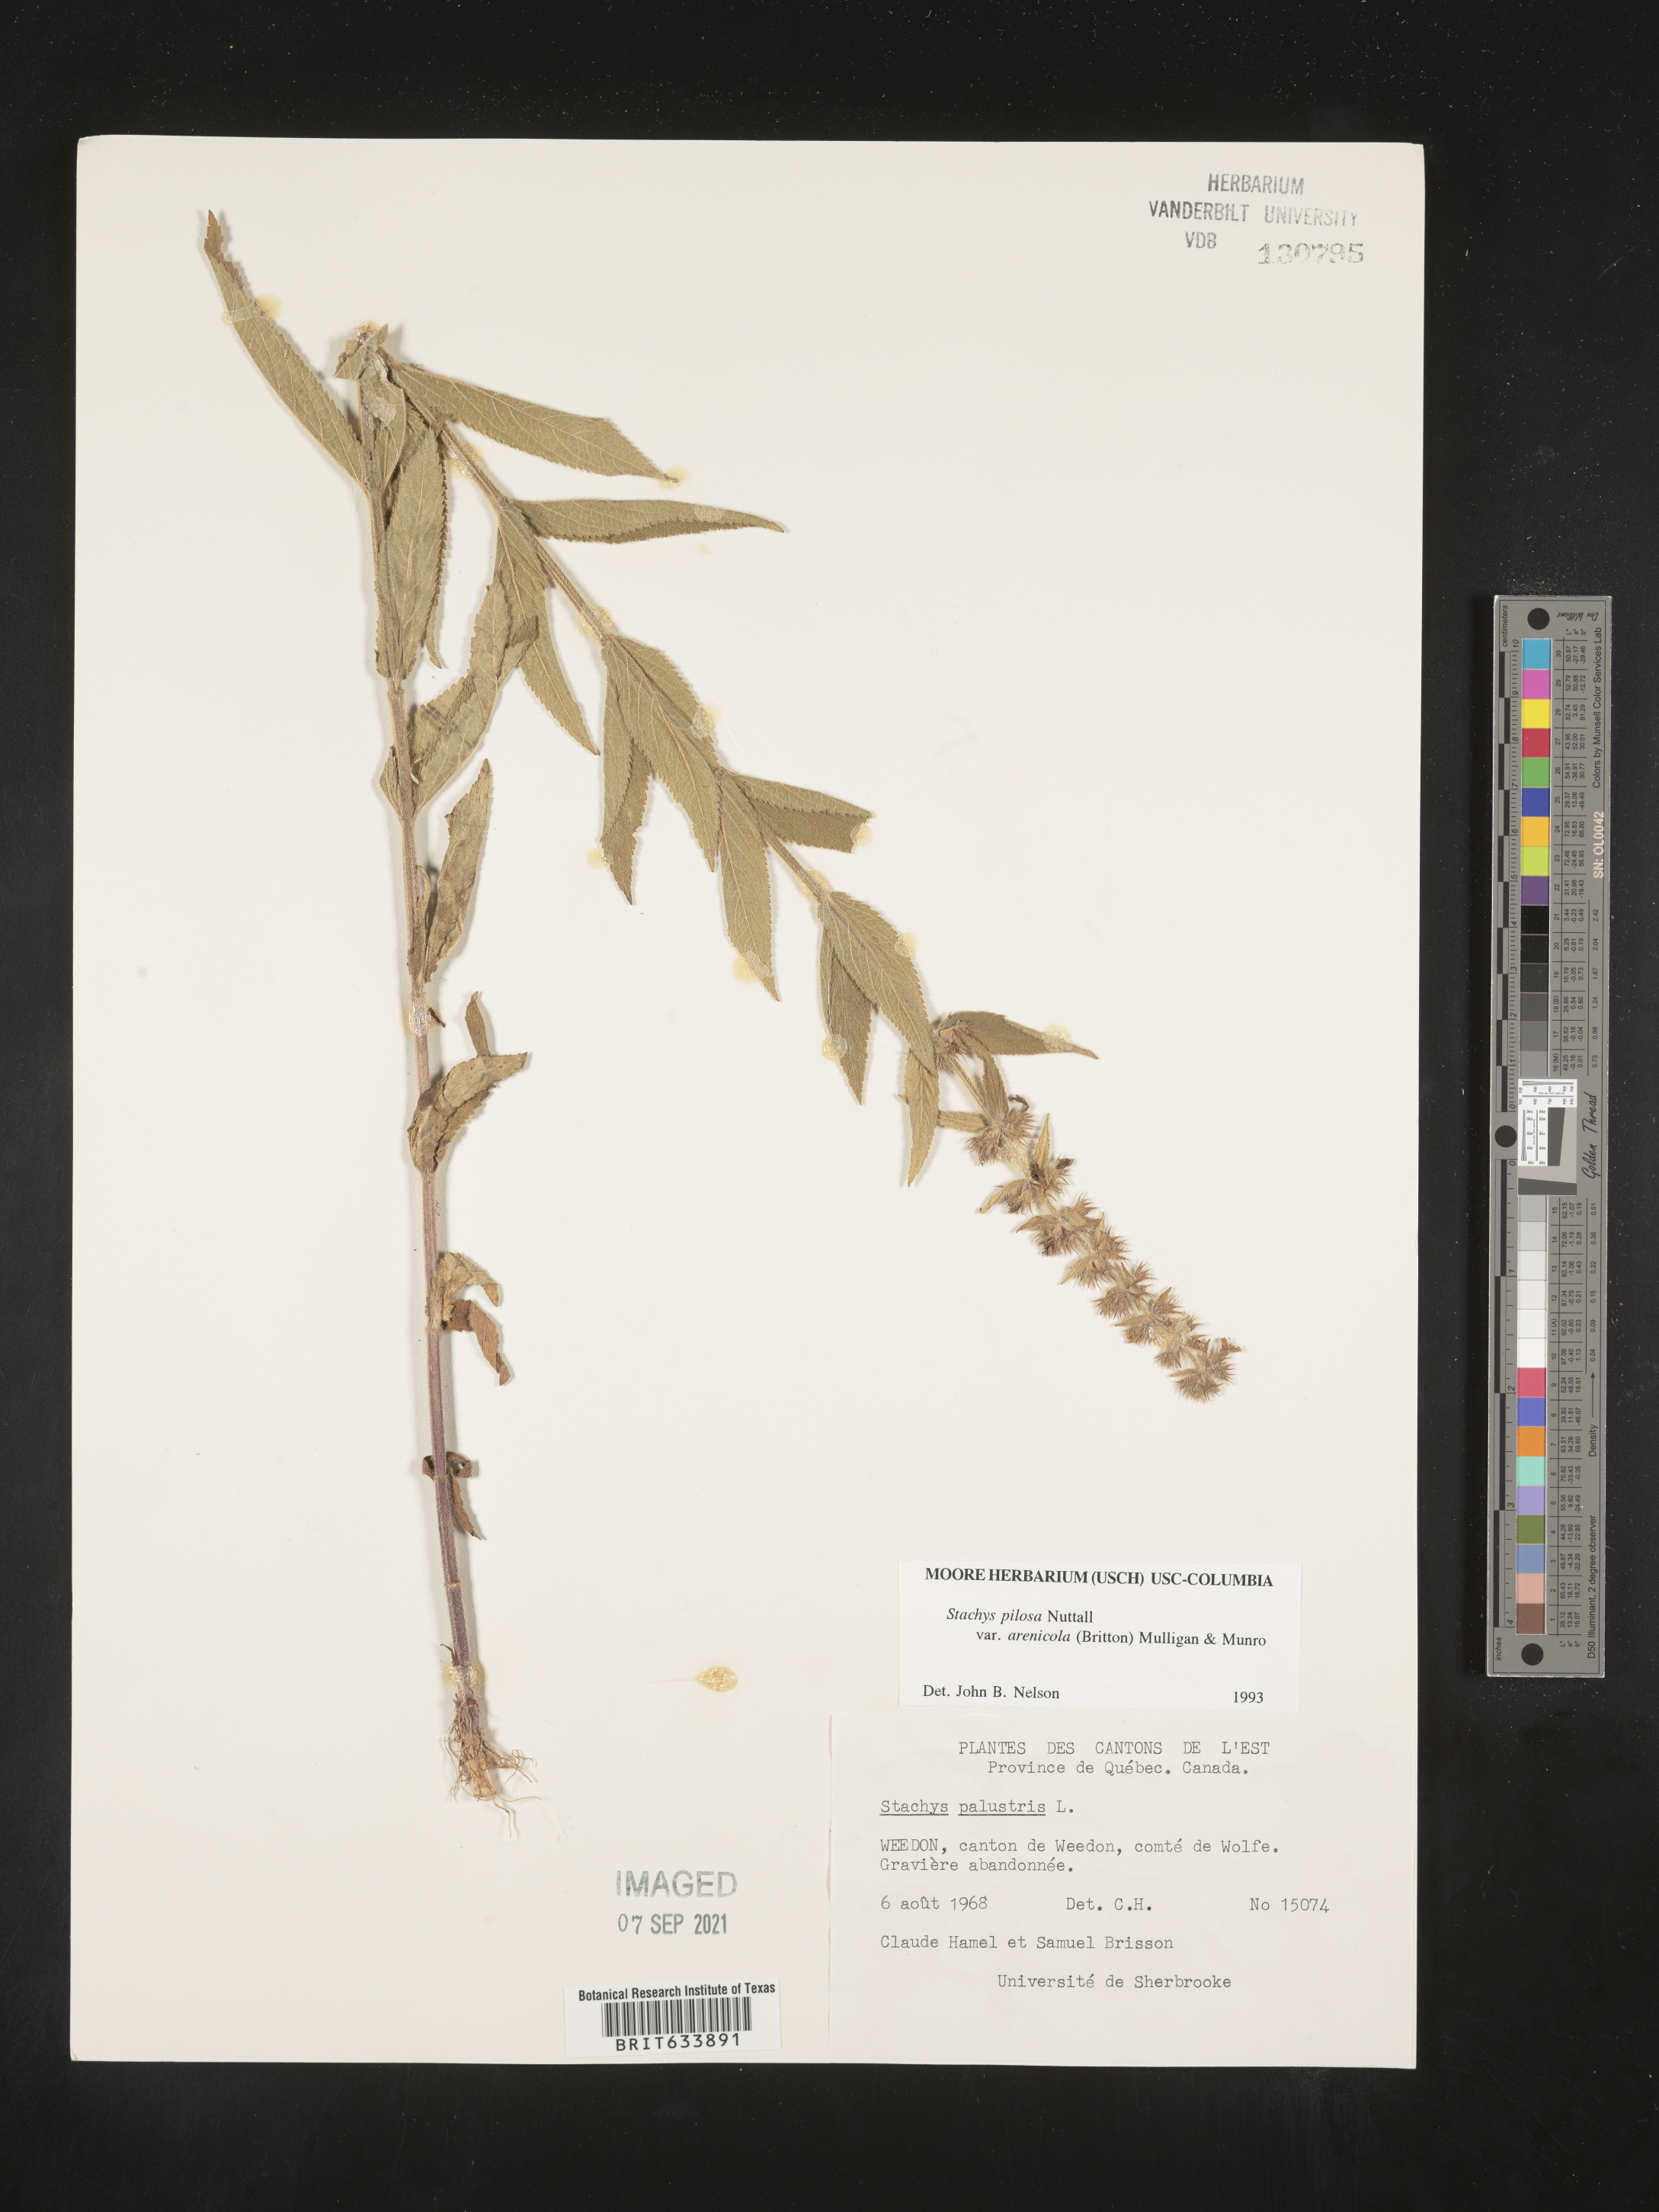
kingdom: Plantae
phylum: Tracheophyta
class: Magnoliopsida
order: Lamiales
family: Lamiaceae
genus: Stachys
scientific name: Stachys
